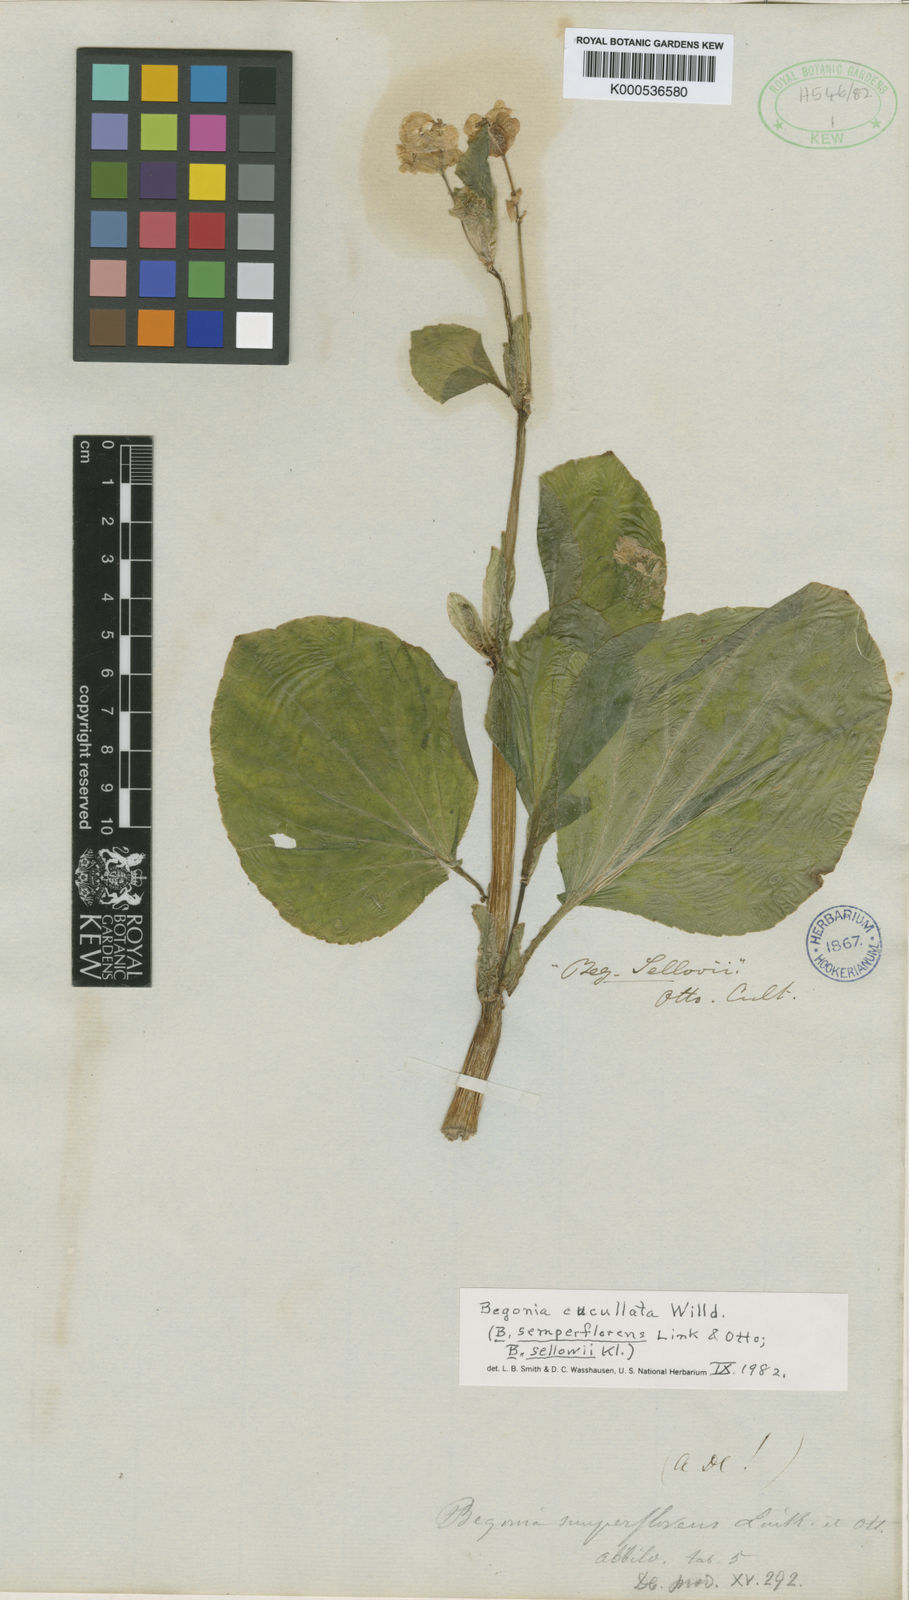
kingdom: Plantae
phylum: Tracheophyta
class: Magnoliopsida
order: Cucurbitales
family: Begoniaceae
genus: Begonia
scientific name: Begonia semperflorens
